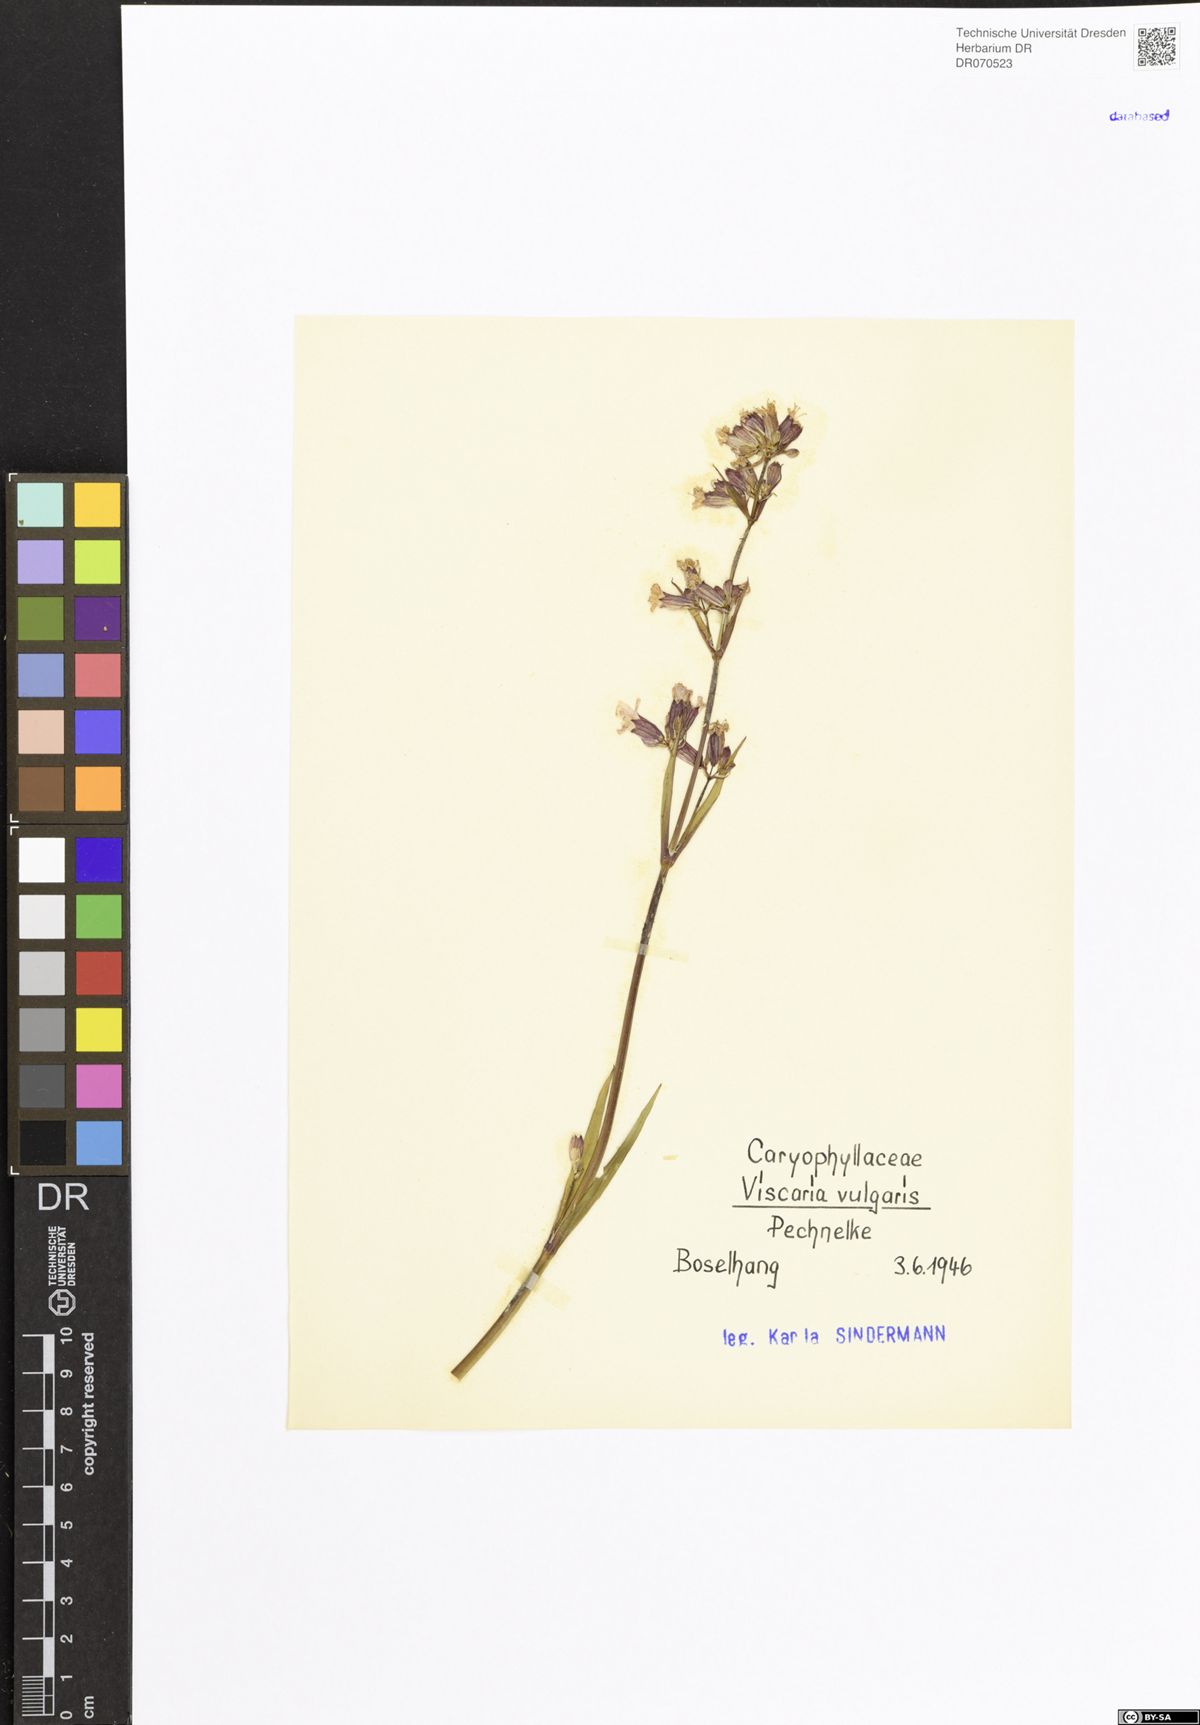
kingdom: Plantae
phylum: Tracheophyta
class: Magnoliopsida
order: Caryophyllales
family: Caryophyllaceae
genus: Viscaria
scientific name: Viscaria vulgaris
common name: Clammy campion
